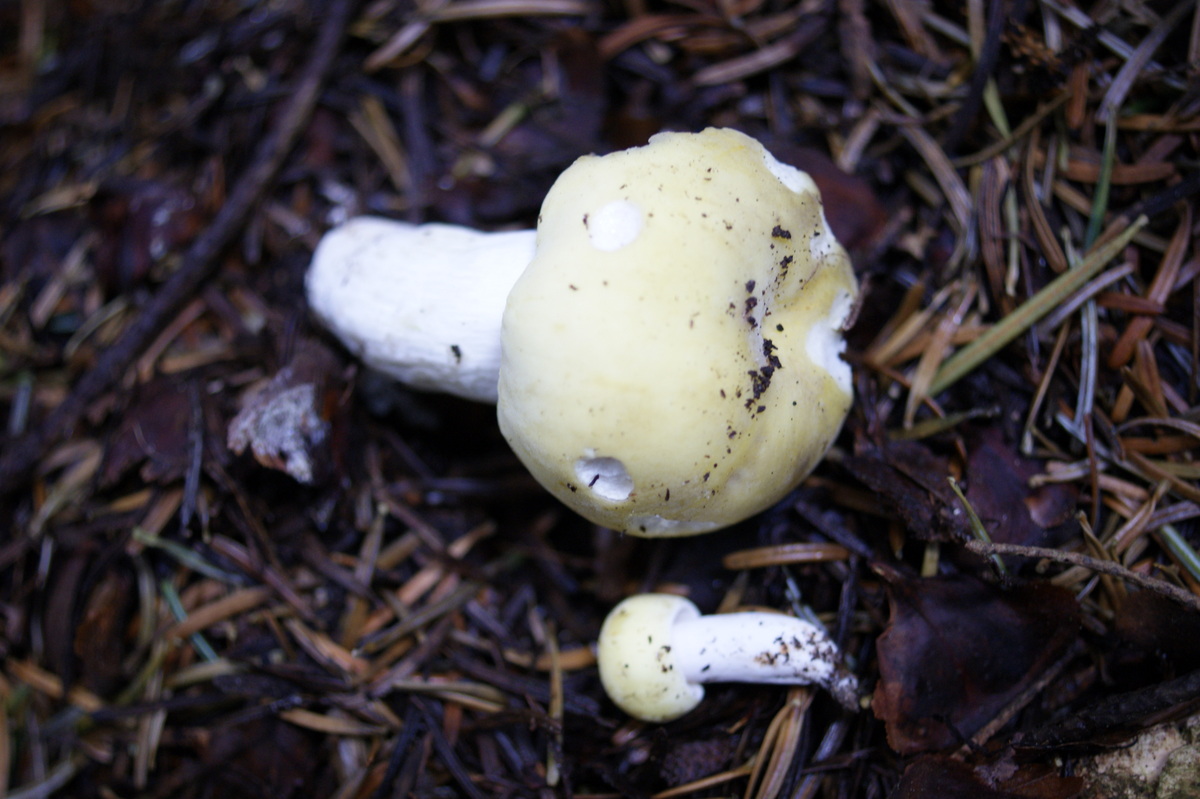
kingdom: Fungi
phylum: Basidiomycota
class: Agaricomycetes
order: Russulales
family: Russulaceae
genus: Russula
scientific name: Russula violeipes
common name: ferskengul skørhat
